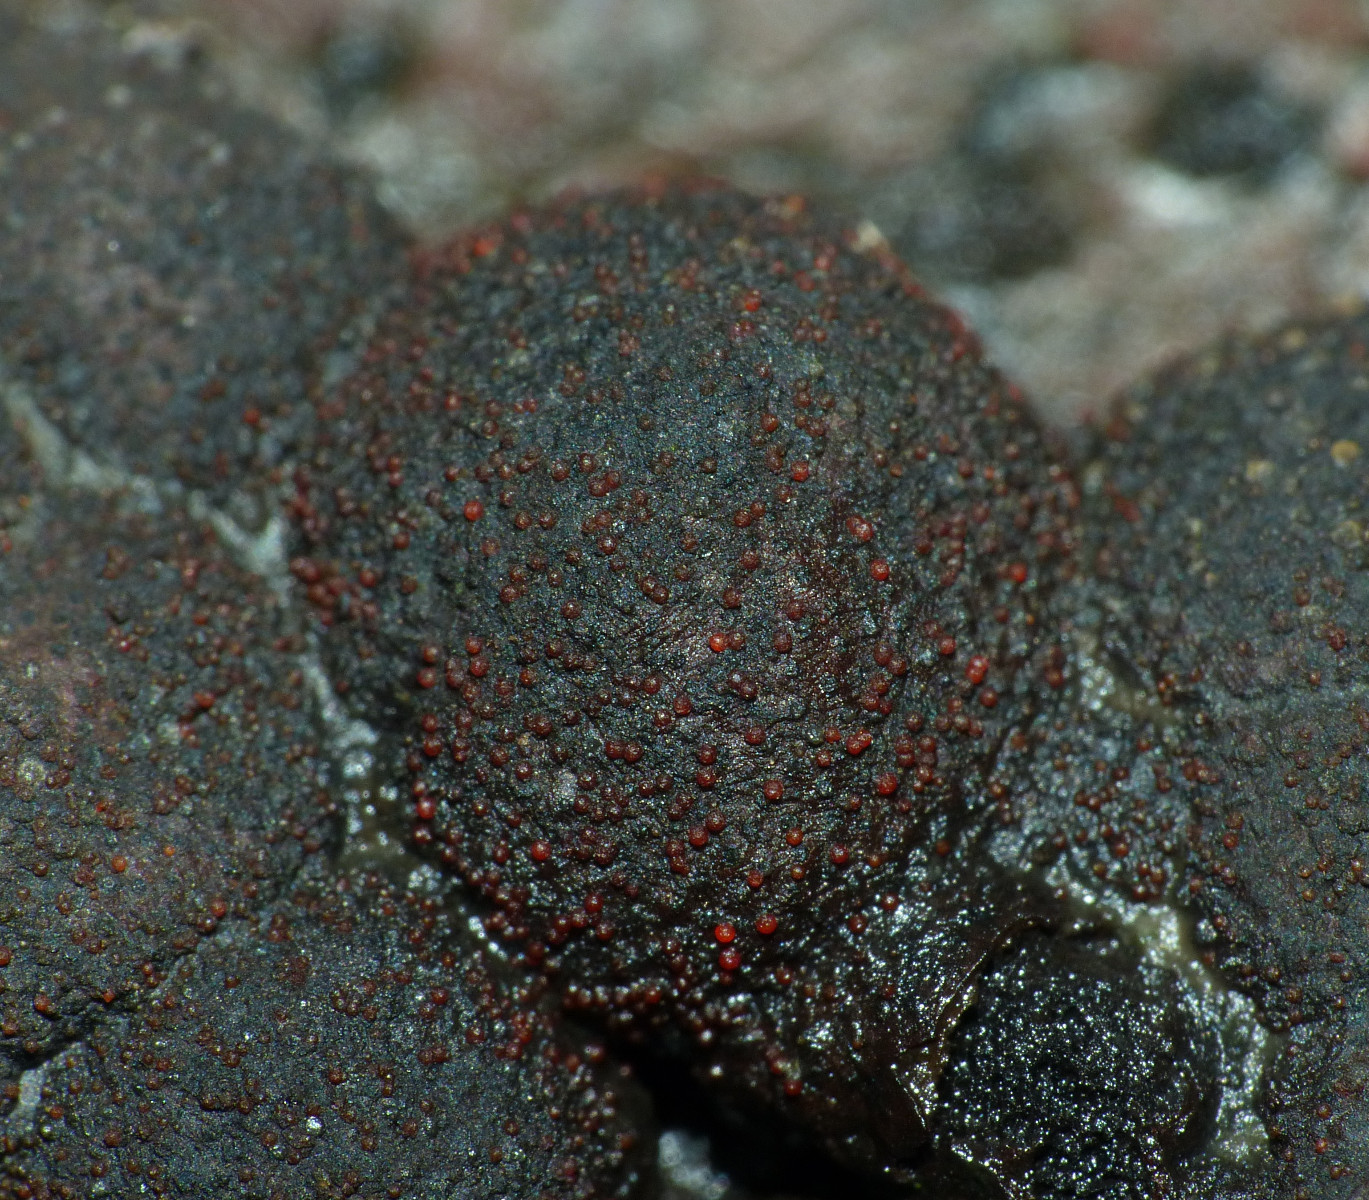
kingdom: Fungi
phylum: Ascomycota
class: Sordariomycetes
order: Hypocreales
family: Nectriaceae
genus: Cosmospora
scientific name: Cosmospora arxii
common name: kuljordbær-cinnobersvamp
